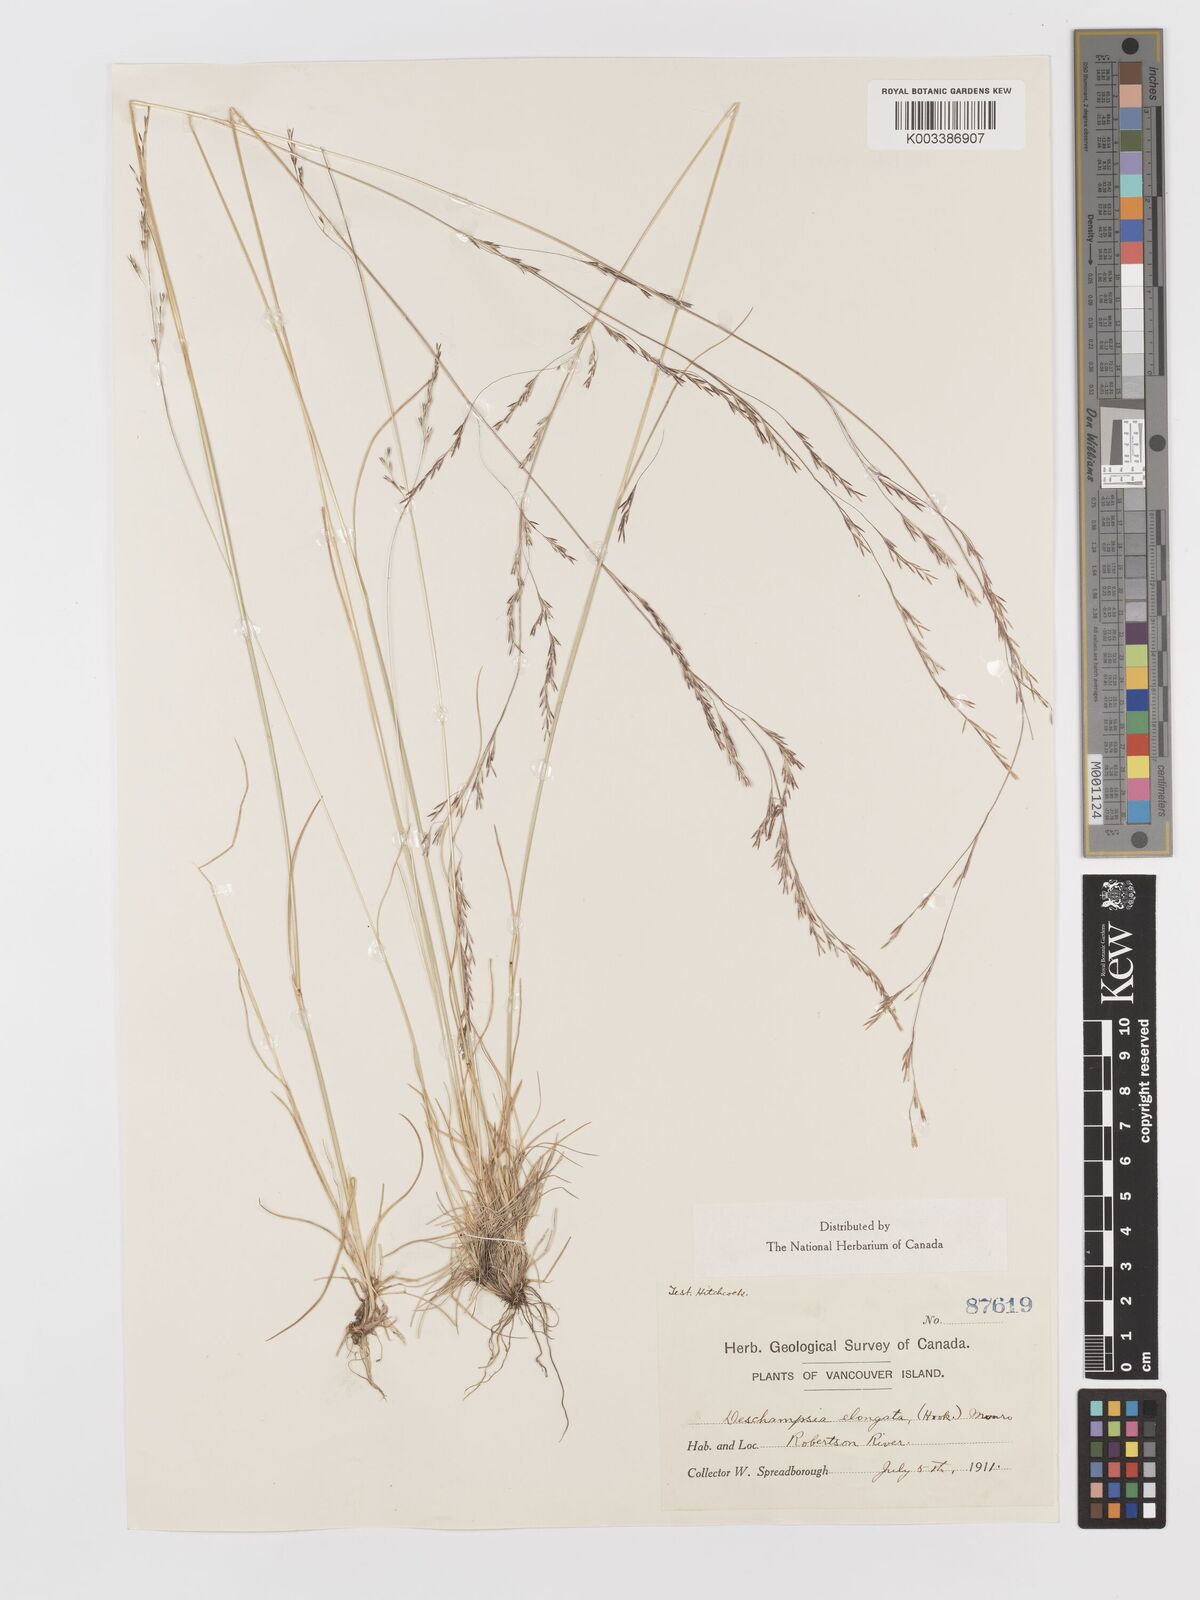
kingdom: Plantae
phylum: Tracheophyta
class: Liliopsida
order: Poales
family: Poaceae
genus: Deschampsia
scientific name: Deschampsia elongata
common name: Slender hairgrass
